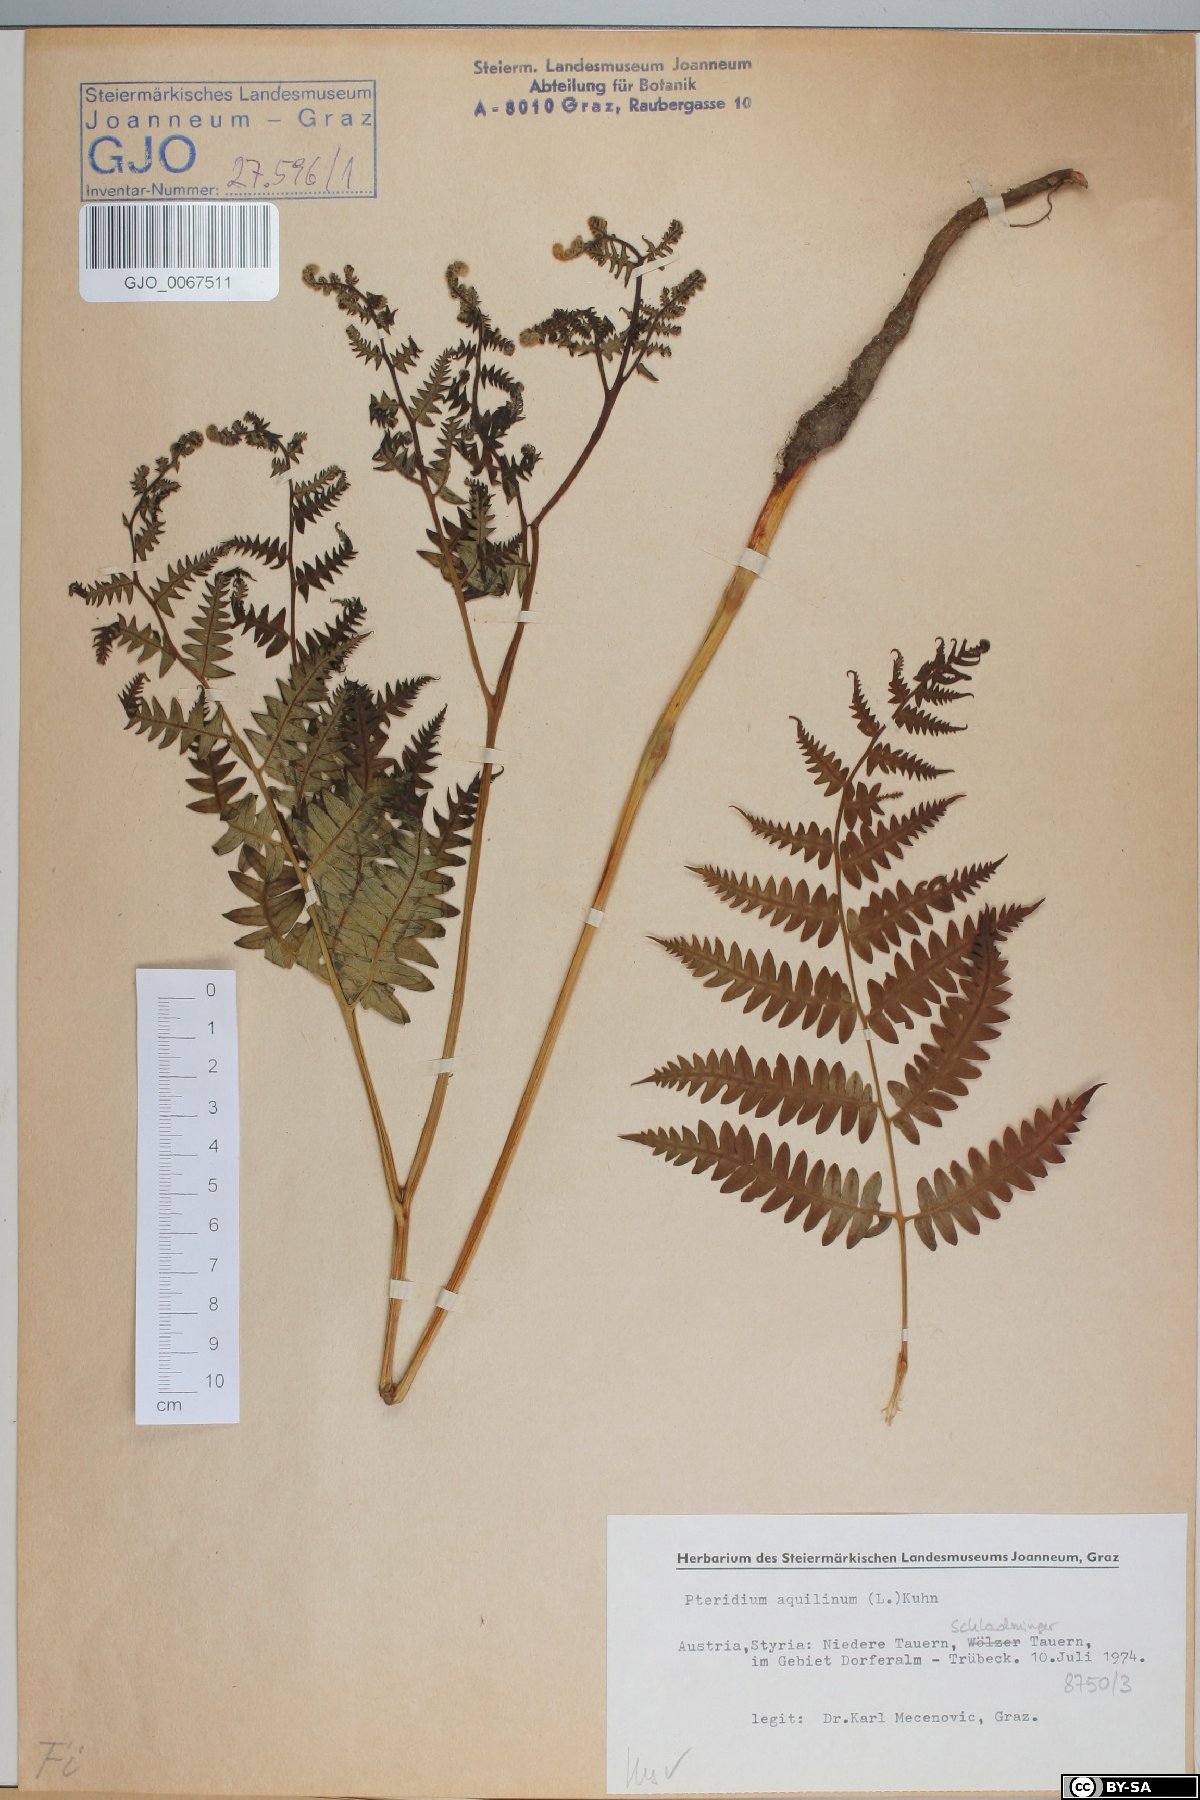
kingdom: Plantae
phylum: Tracheophyta
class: Polypodiopsida
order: Polypodiales
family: Dennstaedtiaceae
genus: Pteridium
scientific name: Pteridium aquilinum
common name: Bracken
